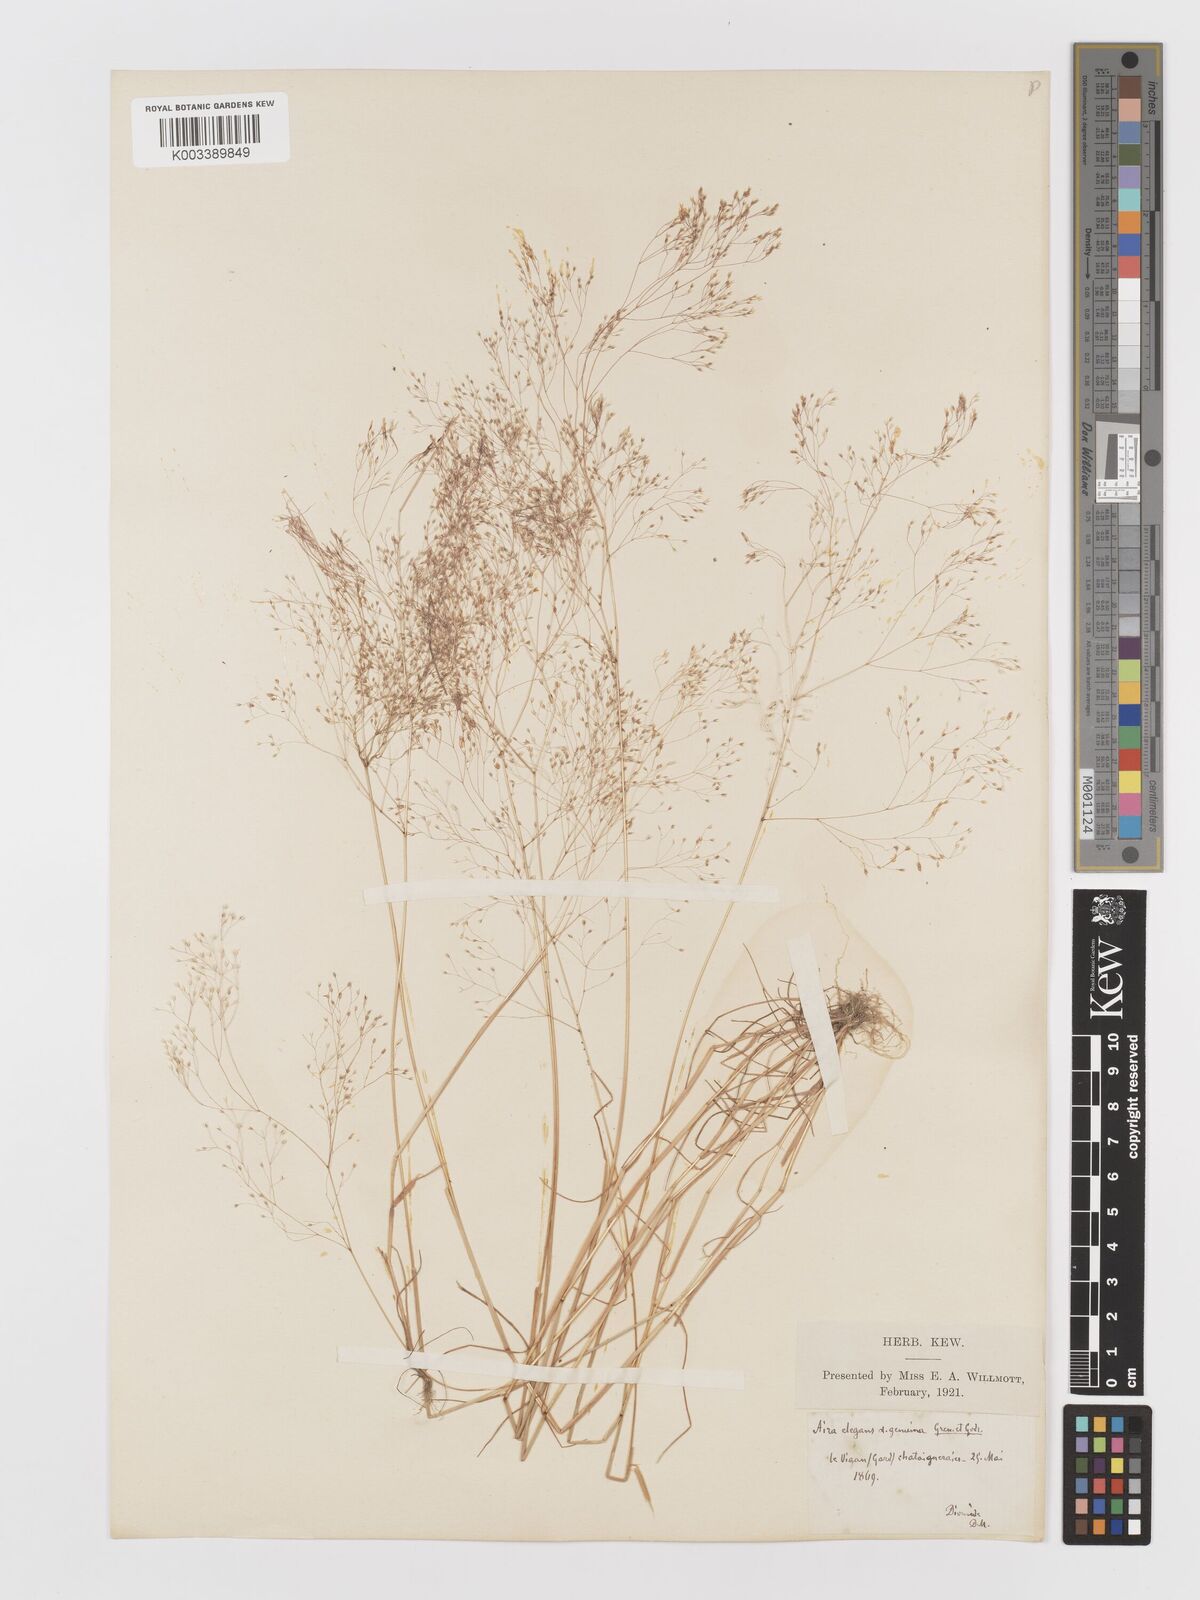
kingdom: Plantae
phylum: Tracheophyta
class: Liliopsida
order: Poales
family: Poaceae
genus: Aira
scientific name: Aira elegans
